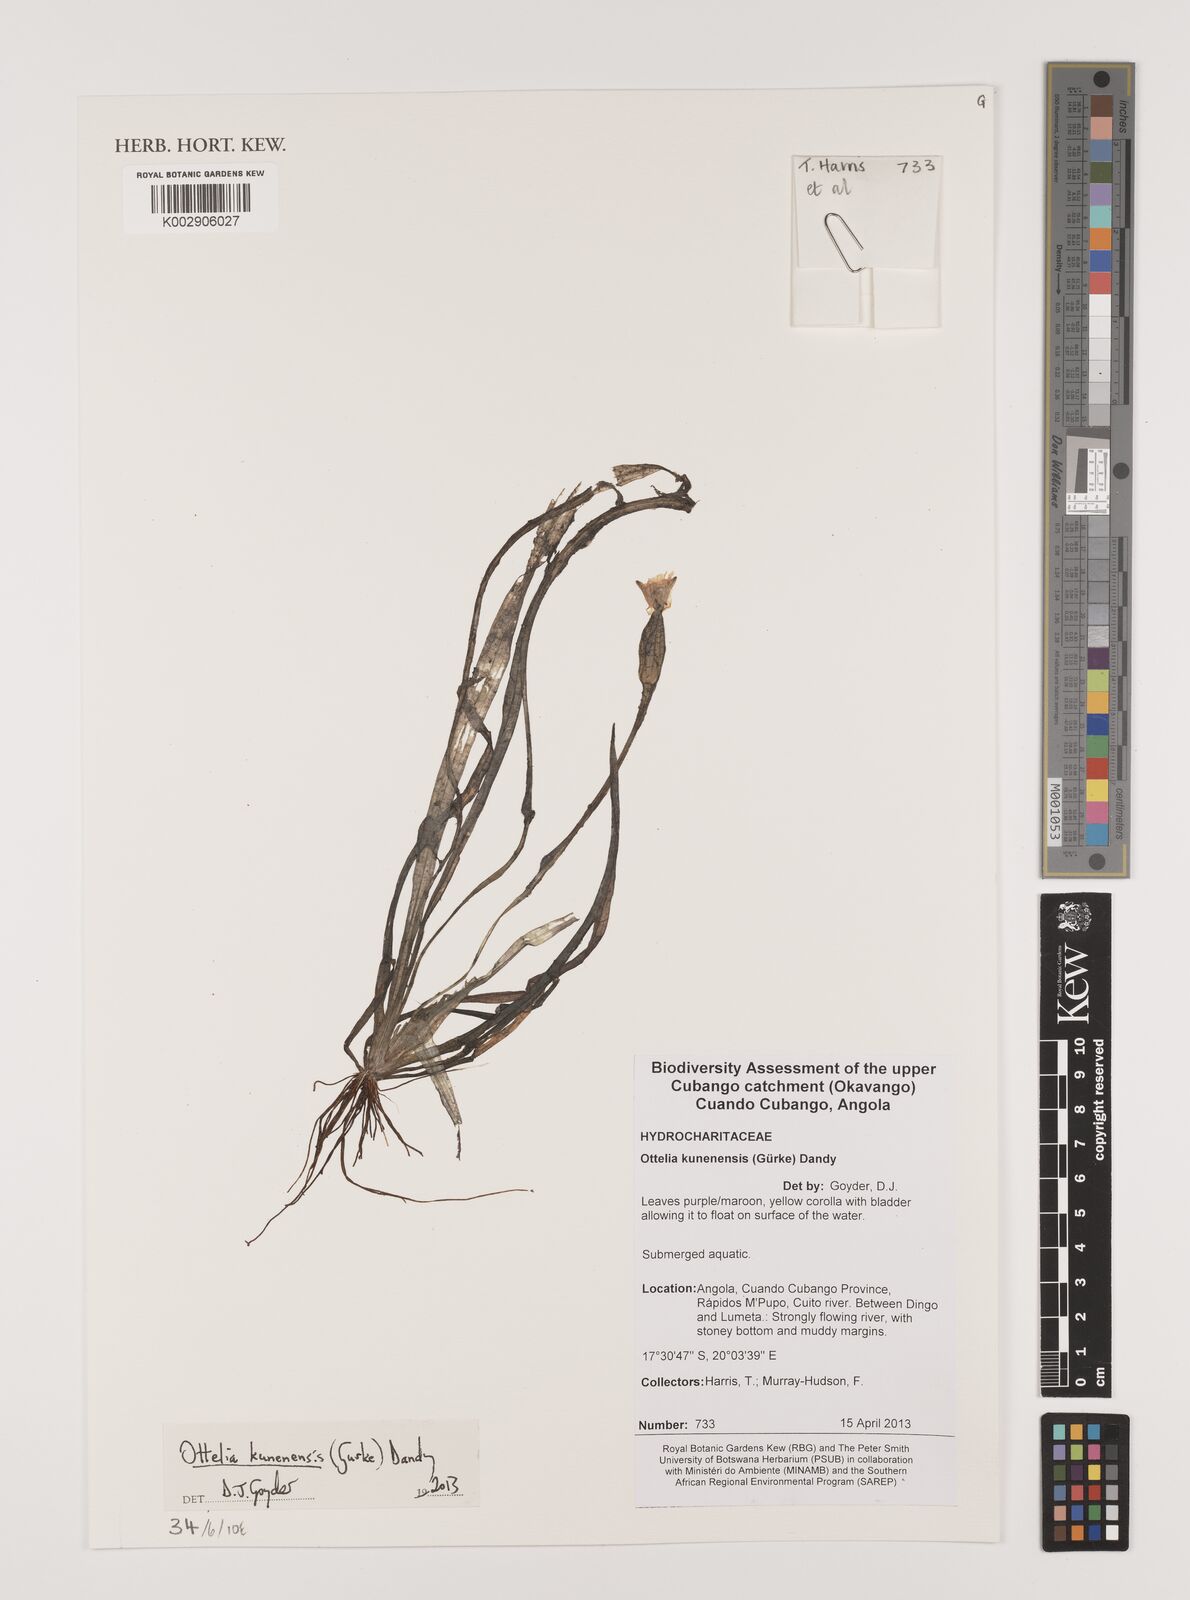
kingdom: Plantae
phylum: Tracheophyta
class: Liliopsida
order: Alismatales
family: Hydrocharitaceae
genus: Ottelia
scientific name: Ottelia kunenensis
